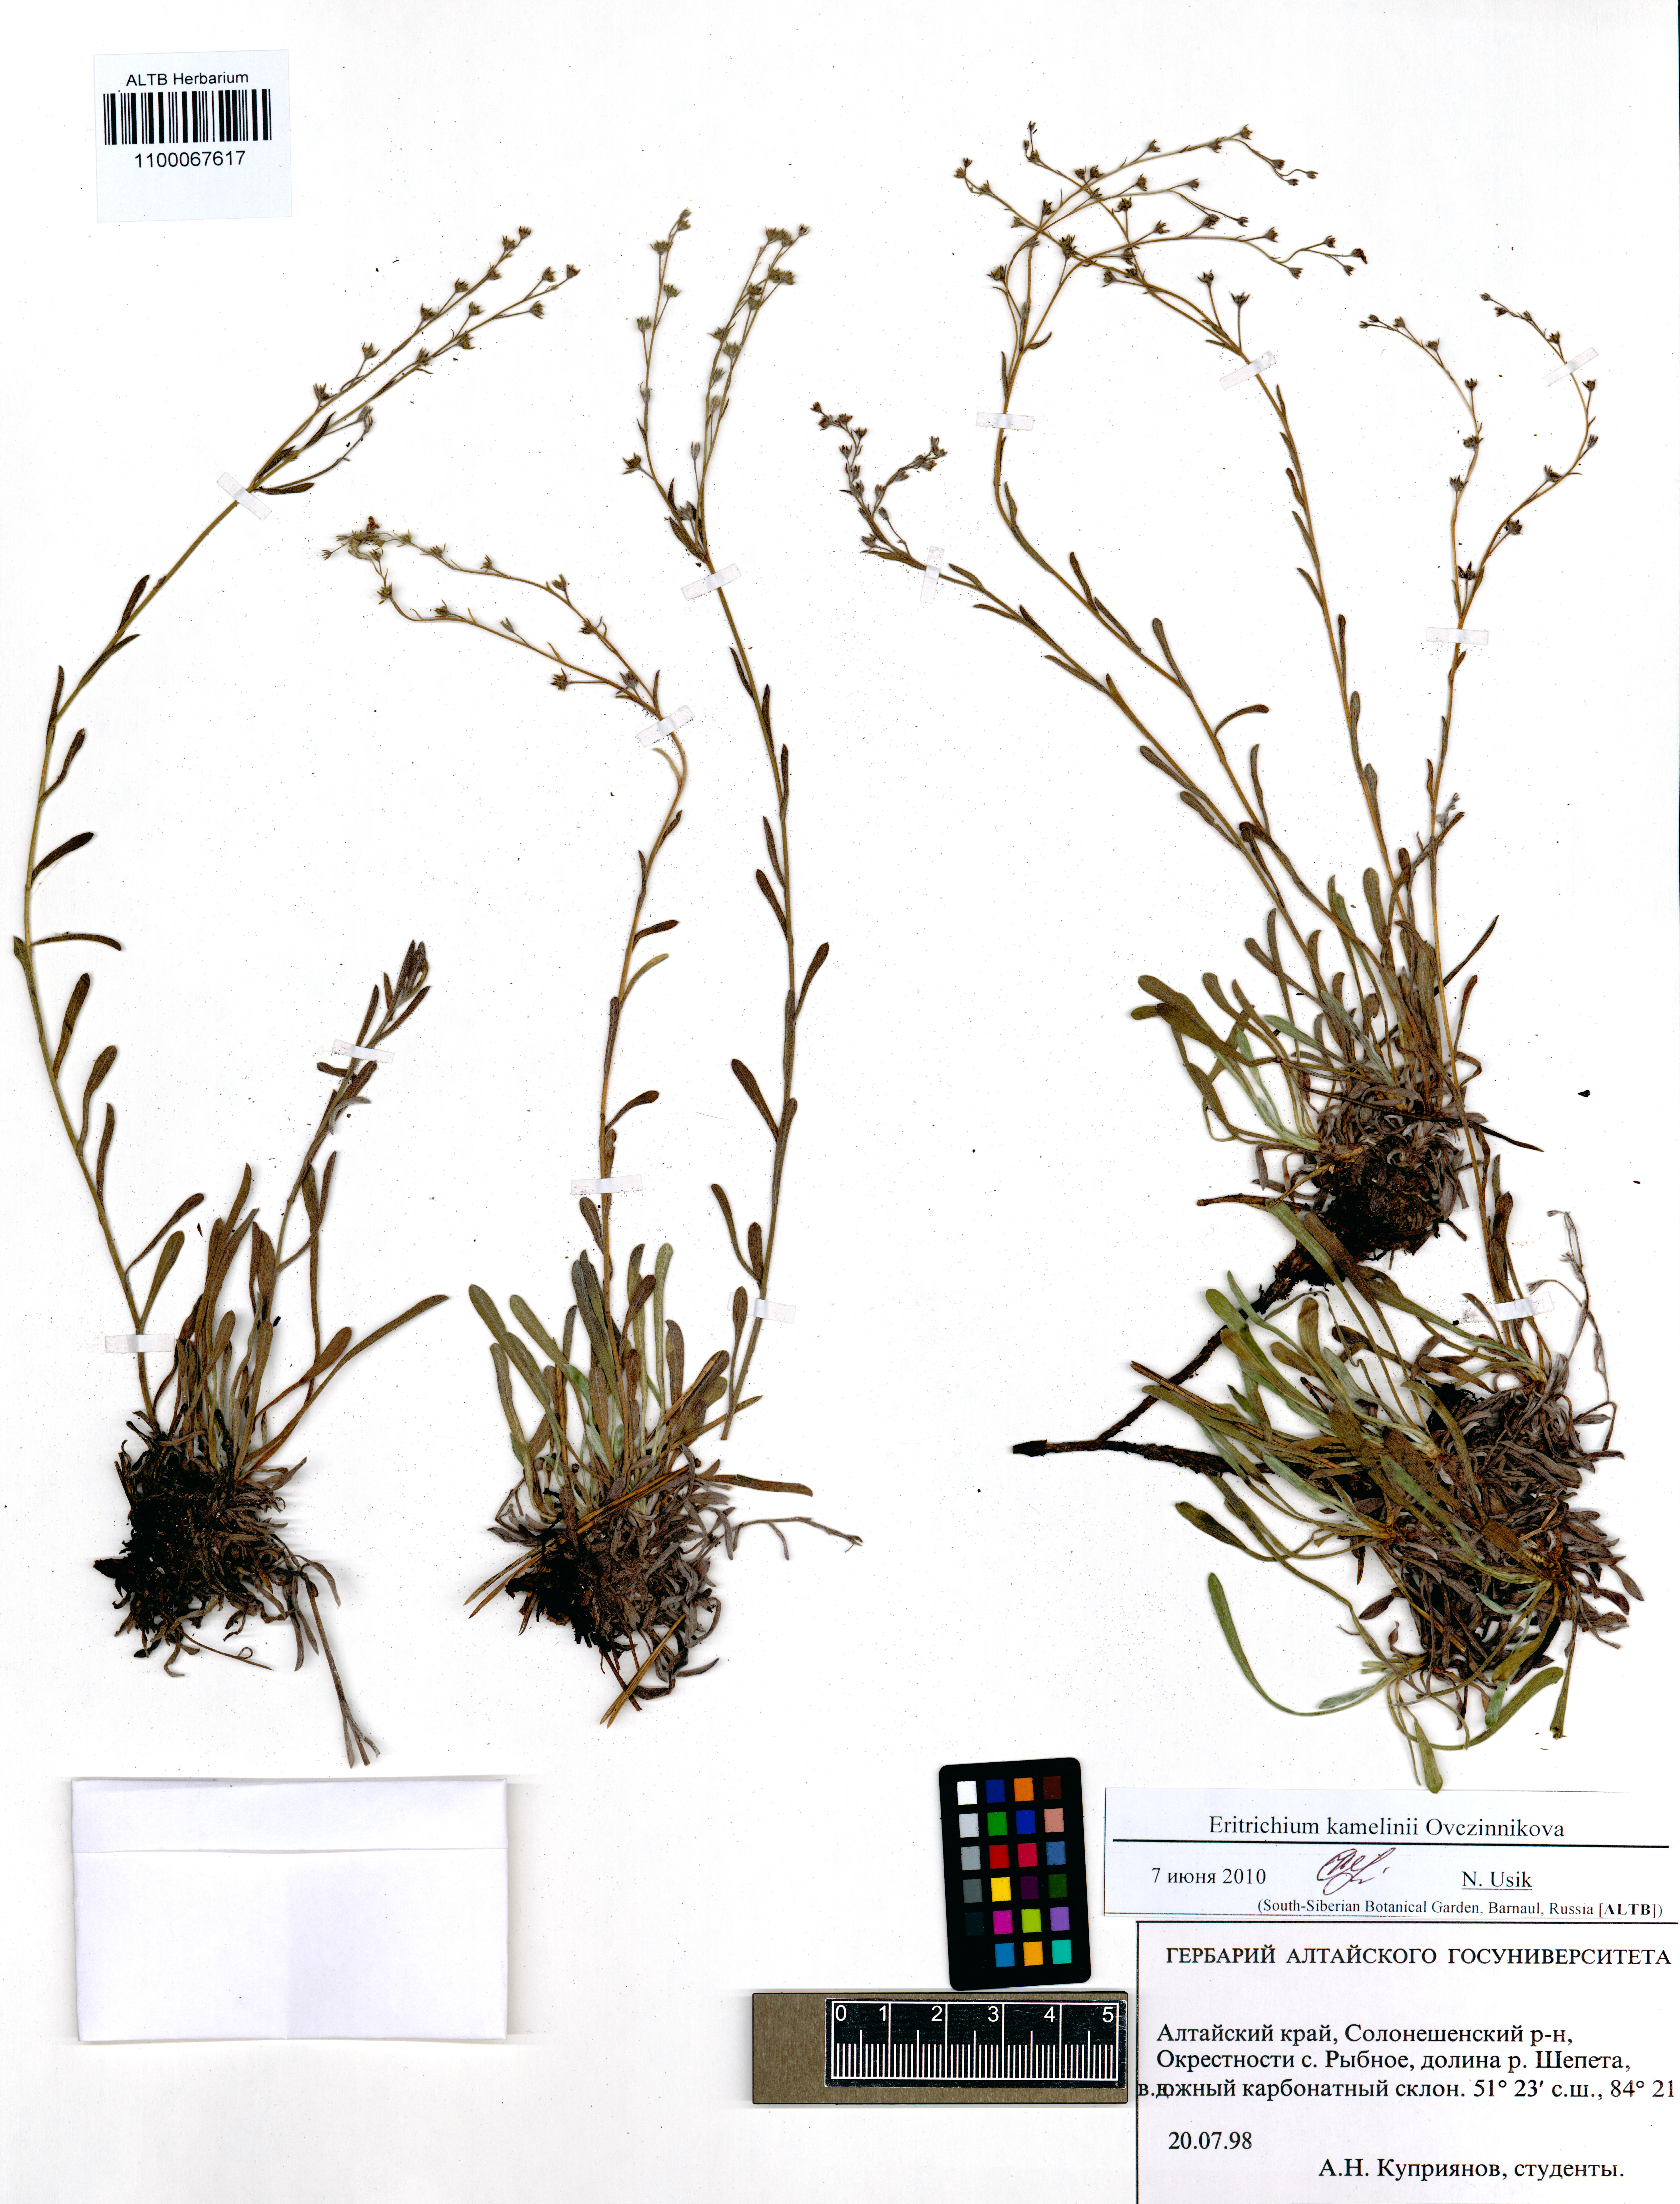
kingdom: Plantae
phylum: Tracheophyta
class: Magnoliopsida
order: Boraginales
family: Boraginaceae
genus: Eritrichium
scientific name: Eritrichium kamelinii
